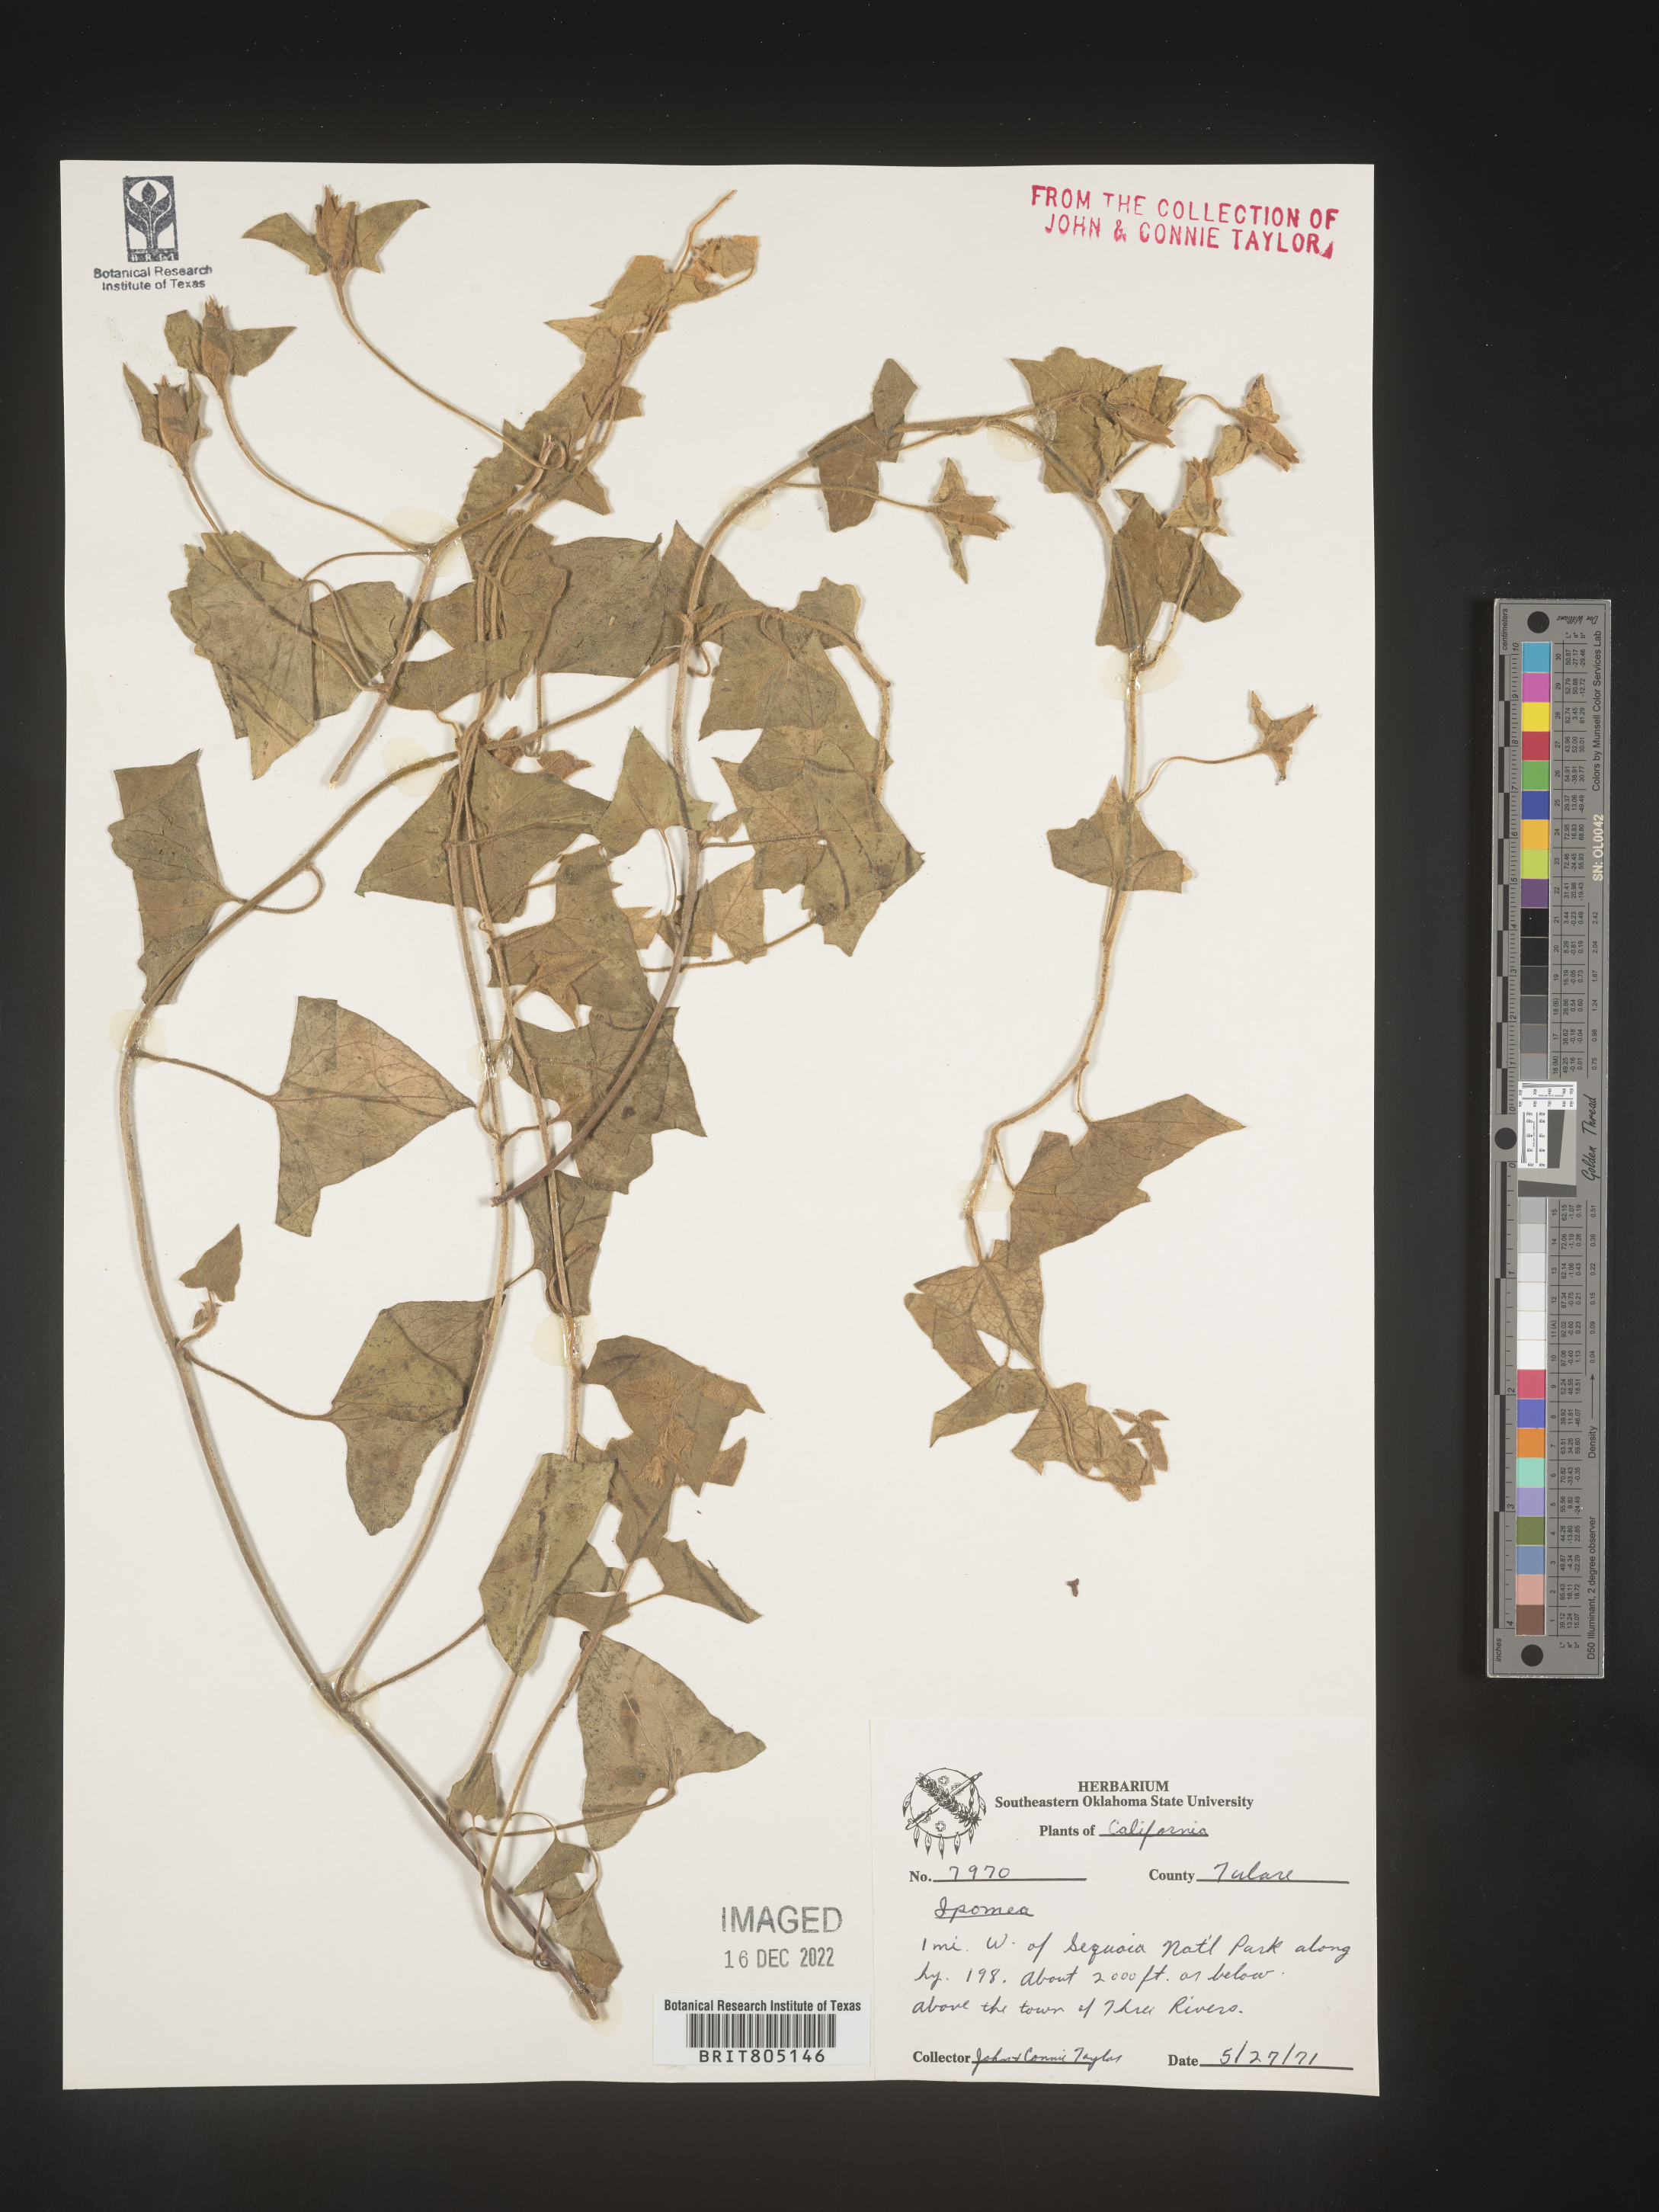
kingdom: Plantae
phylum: Tracheophyta
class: Magnoliopsida
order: Solanales
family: Convolvulaceae
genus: Ipomoea
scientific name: Ipomoea
